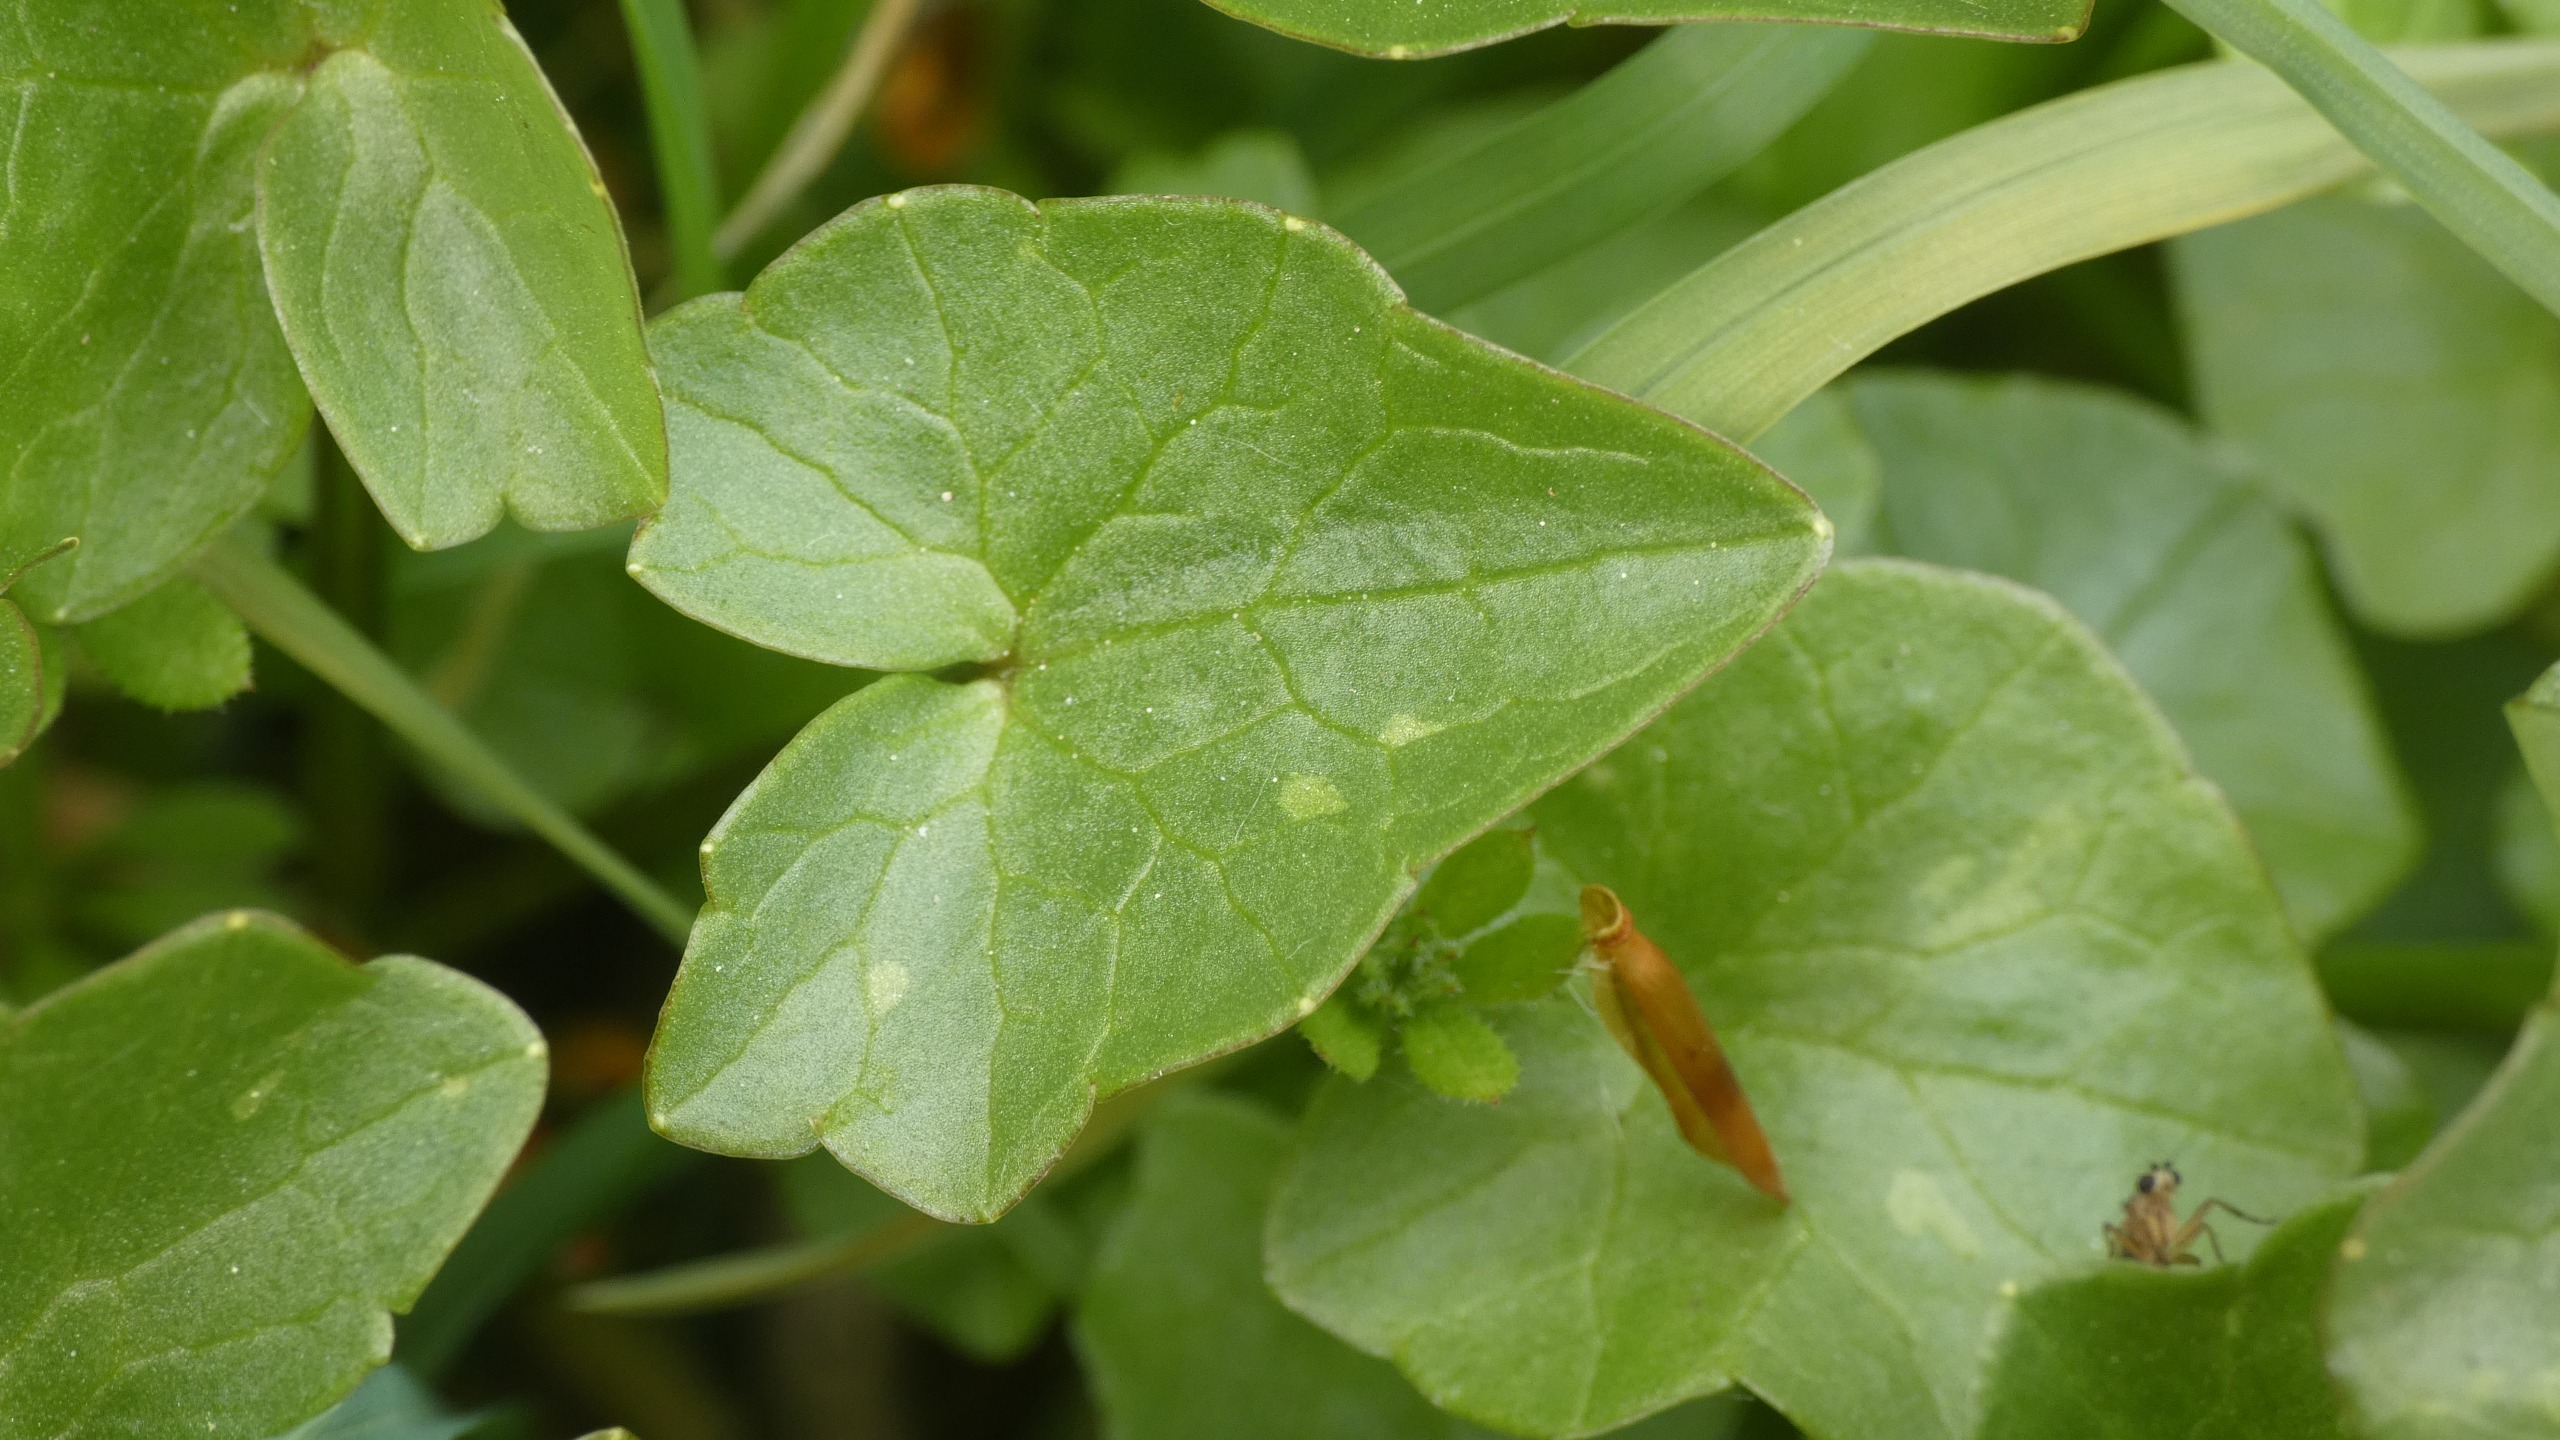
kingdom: Plantae
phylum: Tracheophyta
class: Magnoliopsida
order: Ranunculales
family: Ranunculaceae
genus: Ficaria
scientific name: Ficaria verna
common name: Vorterod
